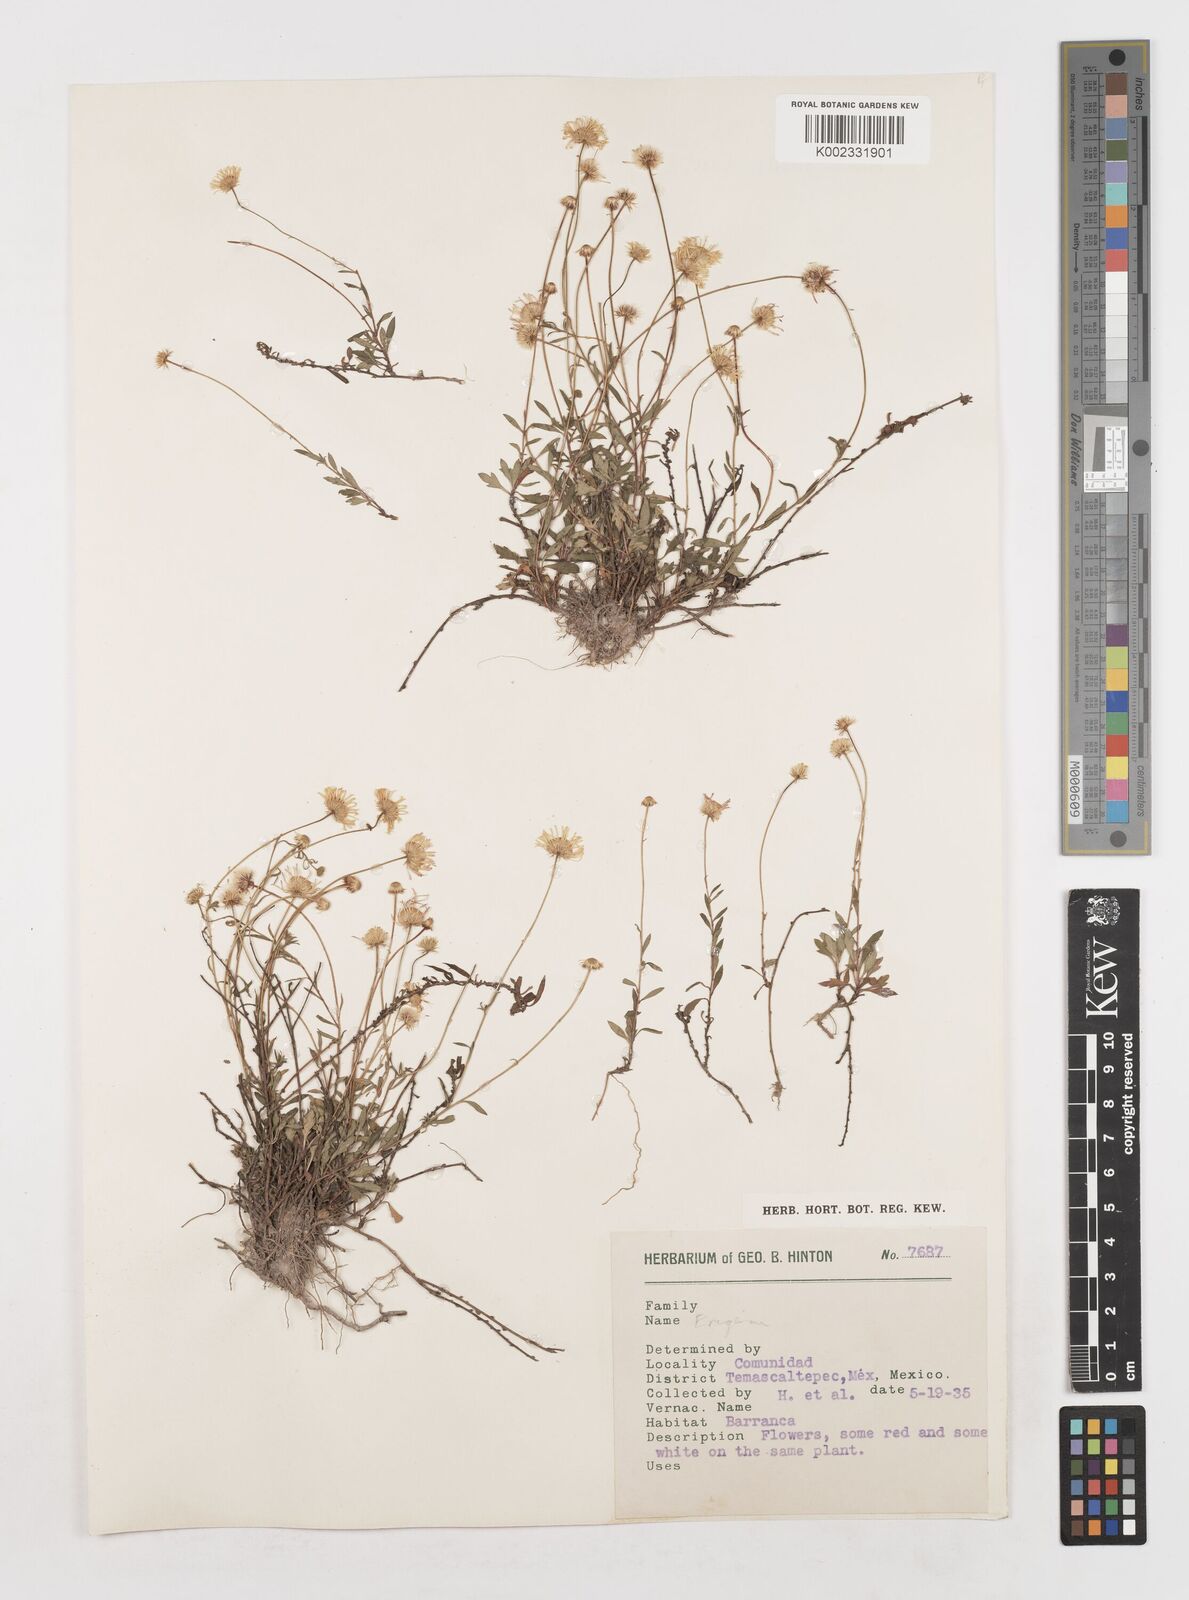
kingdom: Plantae
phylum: Tracheophyta
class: Magnoliopsida
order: Asterales
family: Asteraceae
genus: Erigeron
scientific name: Erigeron
